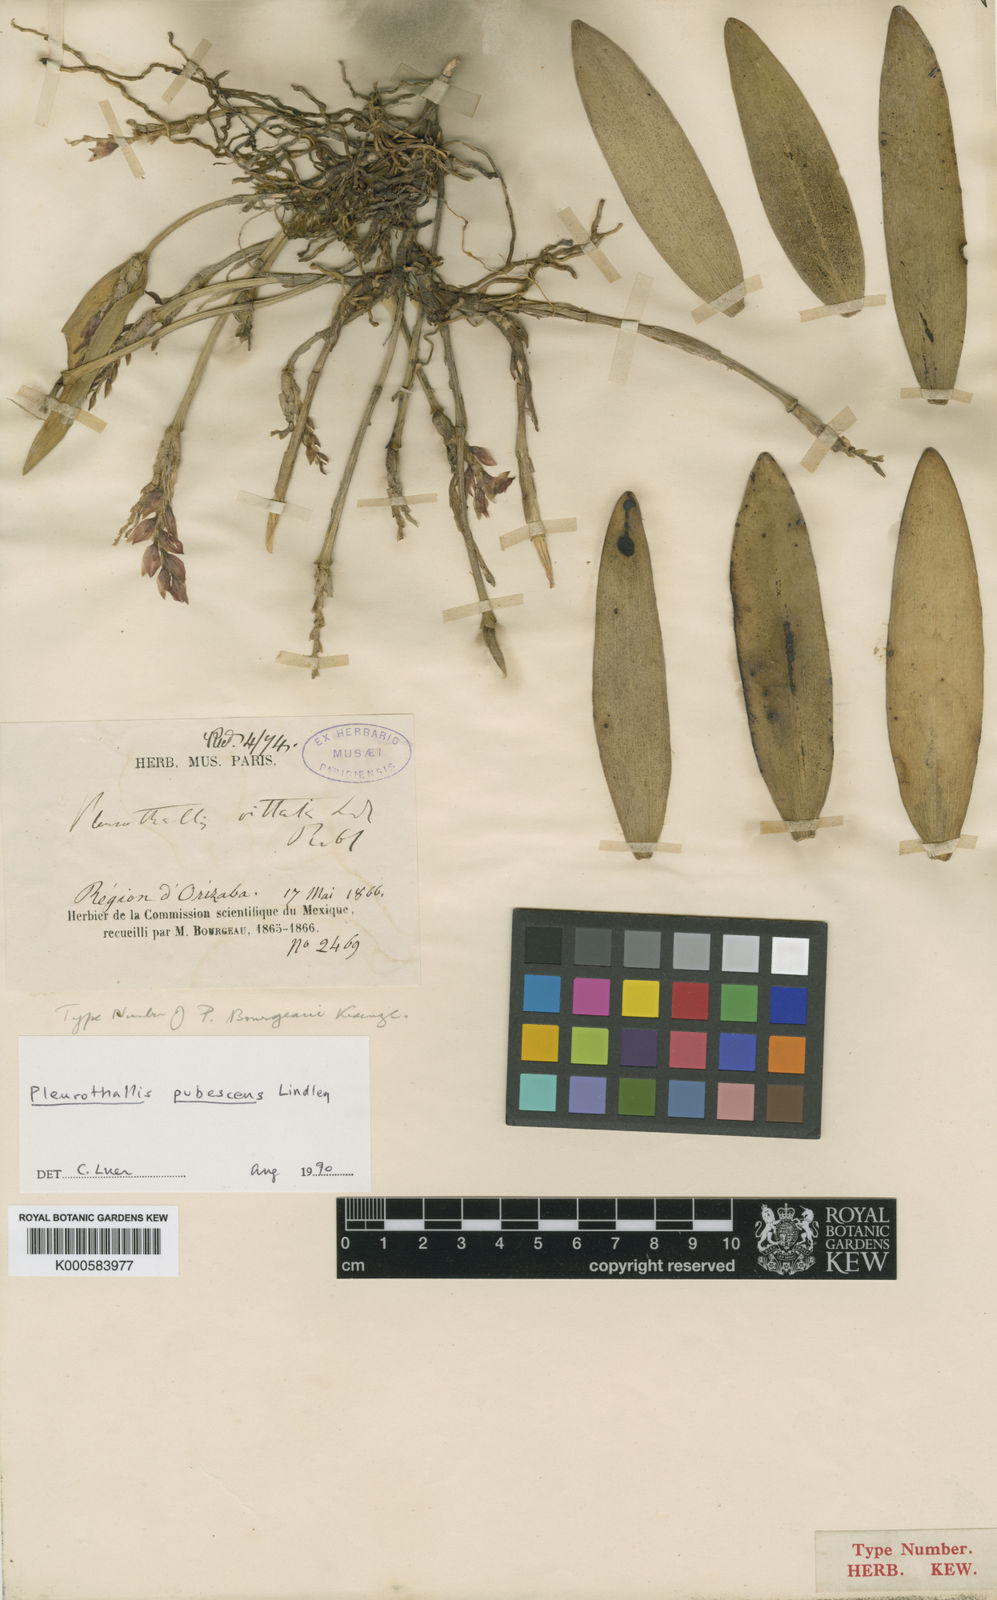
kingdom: Plantae
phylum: Tracheophyta
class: Liliopsida
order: Asparagales
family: Orchidaceae
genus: Acianthera
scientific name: Acianthera pubescens
